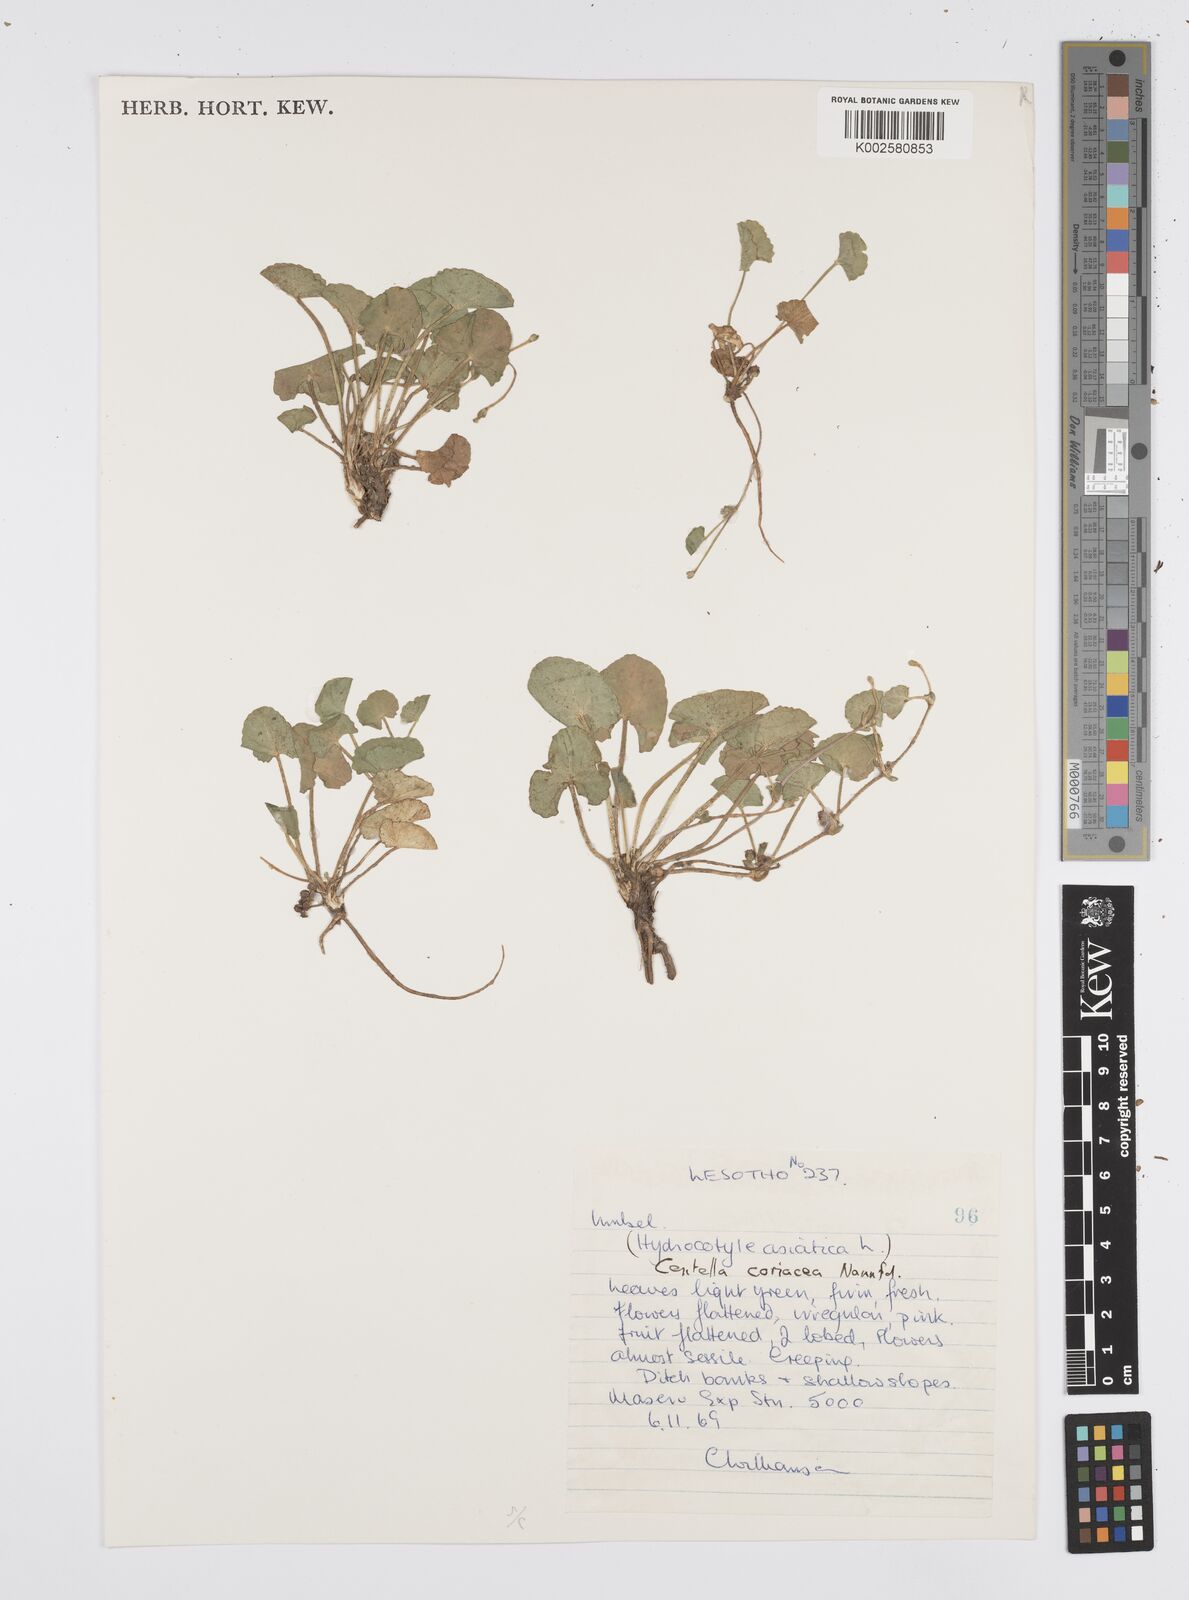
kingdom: Plantae
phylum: Tracheophyta
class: Magnoliopsida
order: Apiales
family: Apiaceae
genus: Centella
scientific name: Centella coriacea
